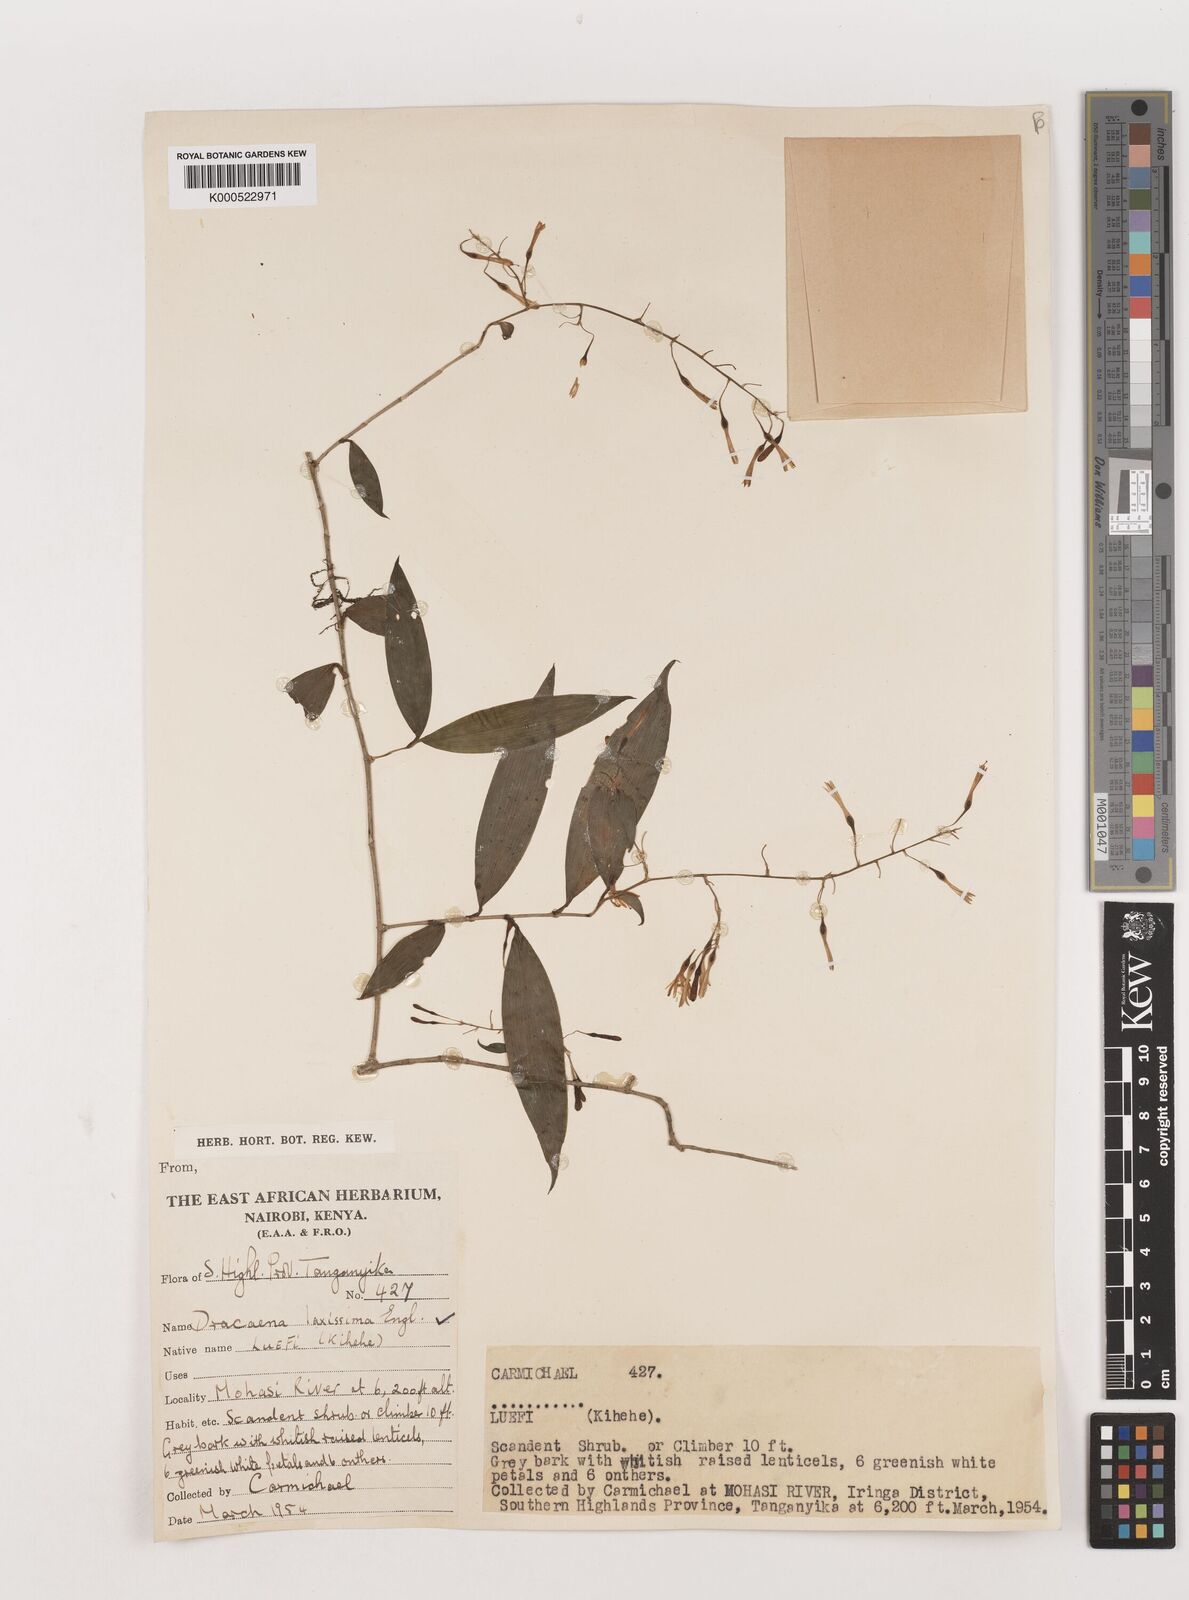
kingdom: Plantae
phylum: Tracheophyta
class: Liliopsida
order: Asparagales
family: Asparagaceae
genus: Dracaena
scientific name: Dracaena laxissima
